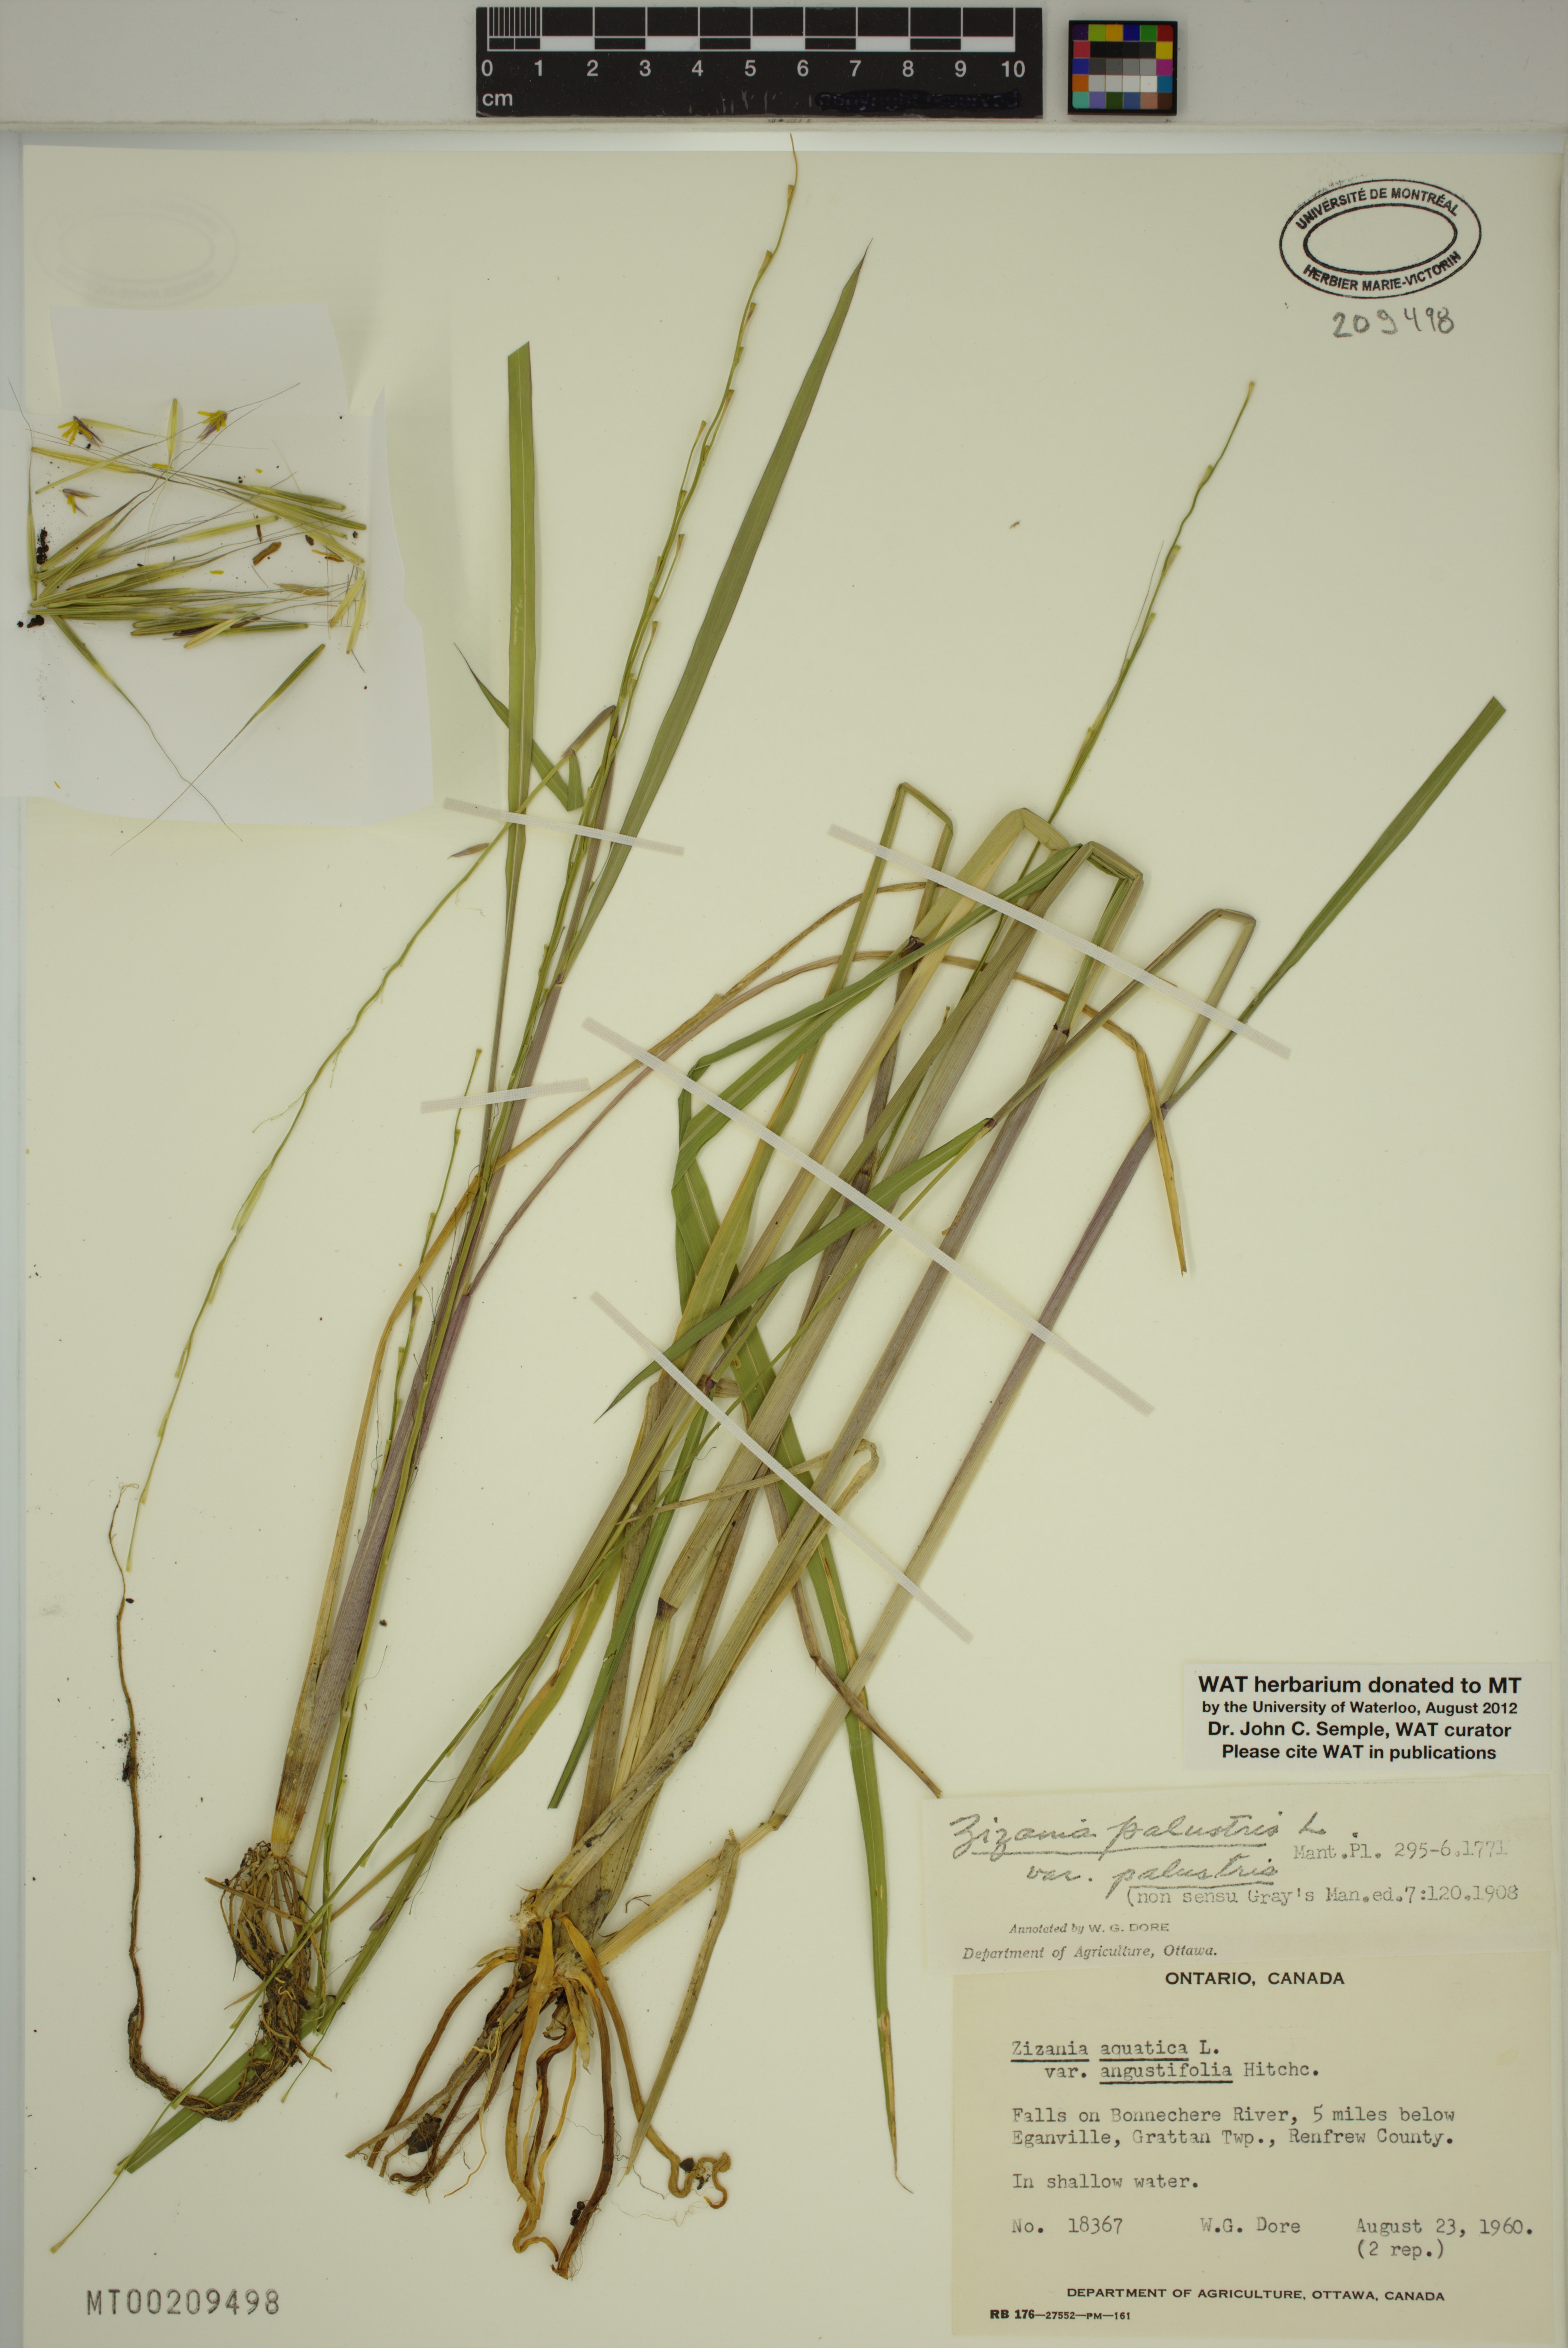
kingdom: Plantae
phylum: Tracheophyta
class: Liliopsida
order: Poales
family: Poaceae
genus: Zizania
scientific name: Zizania palustris
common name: Northern wild rice
